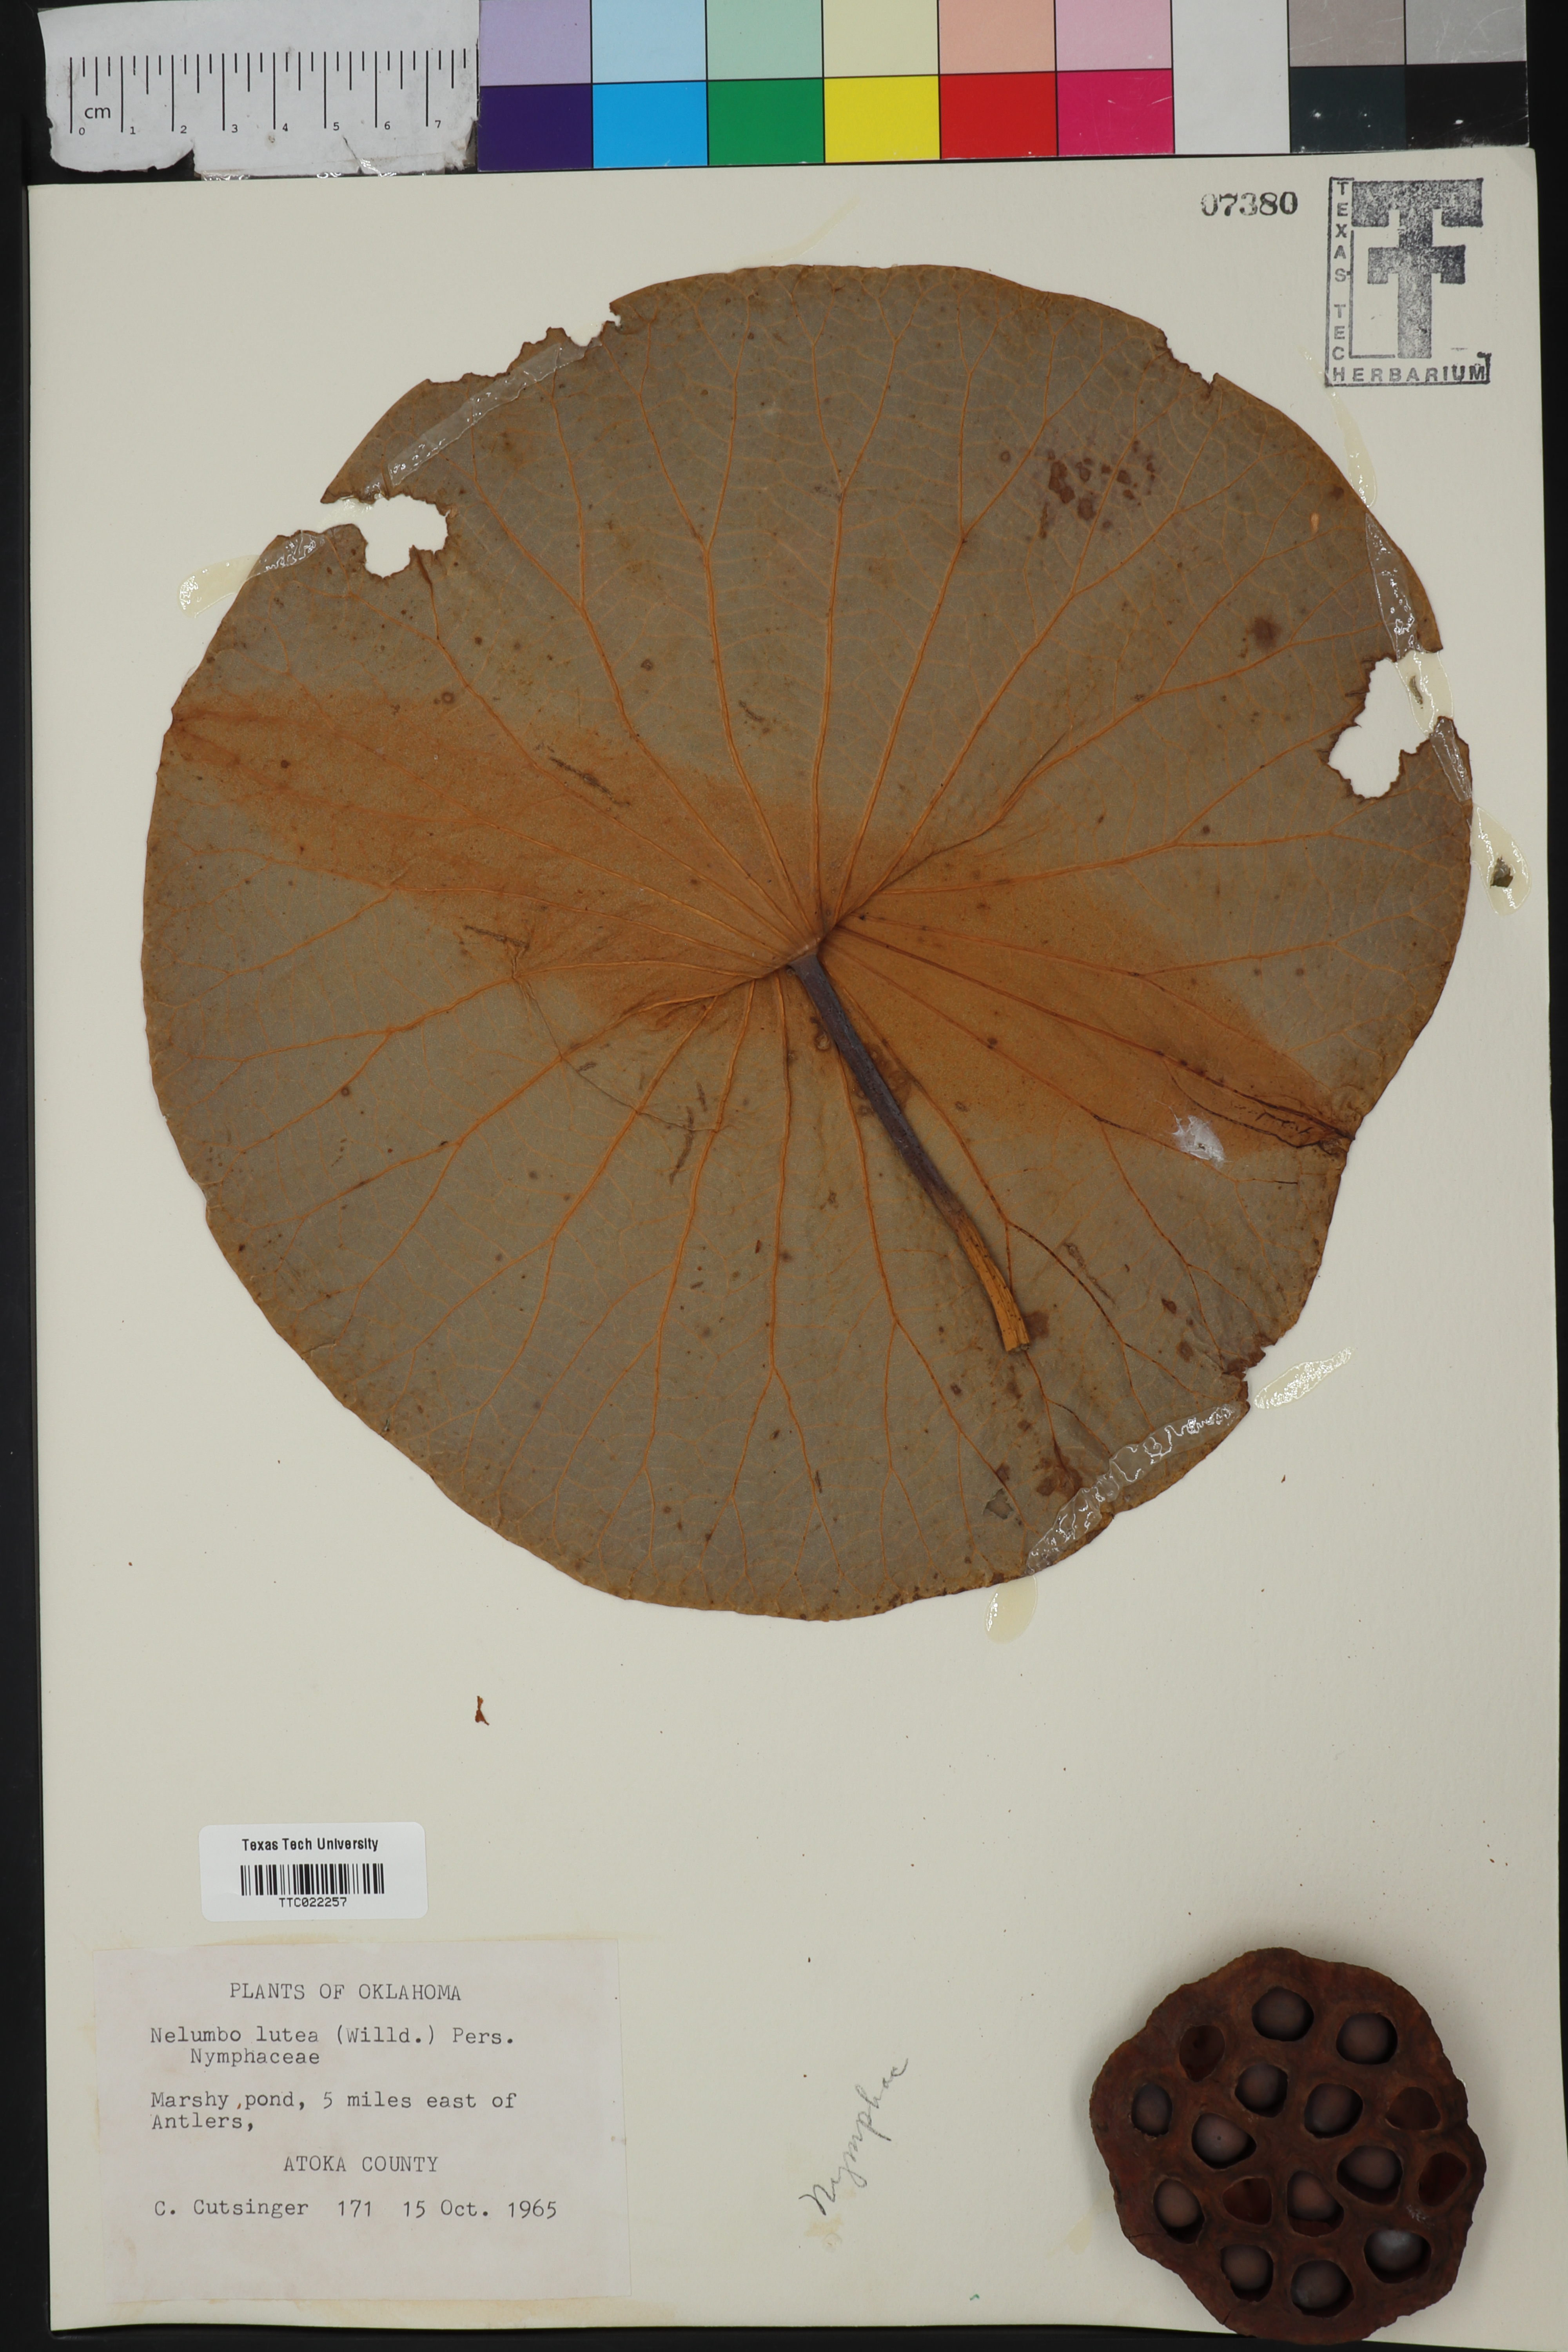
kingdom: Plantae
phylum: Tracheophyta
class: Magnoliopsida
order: Proteales
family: Nelumbonaceae
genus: Nelumbo
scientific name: Nelumbo lutea
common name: American lotus
